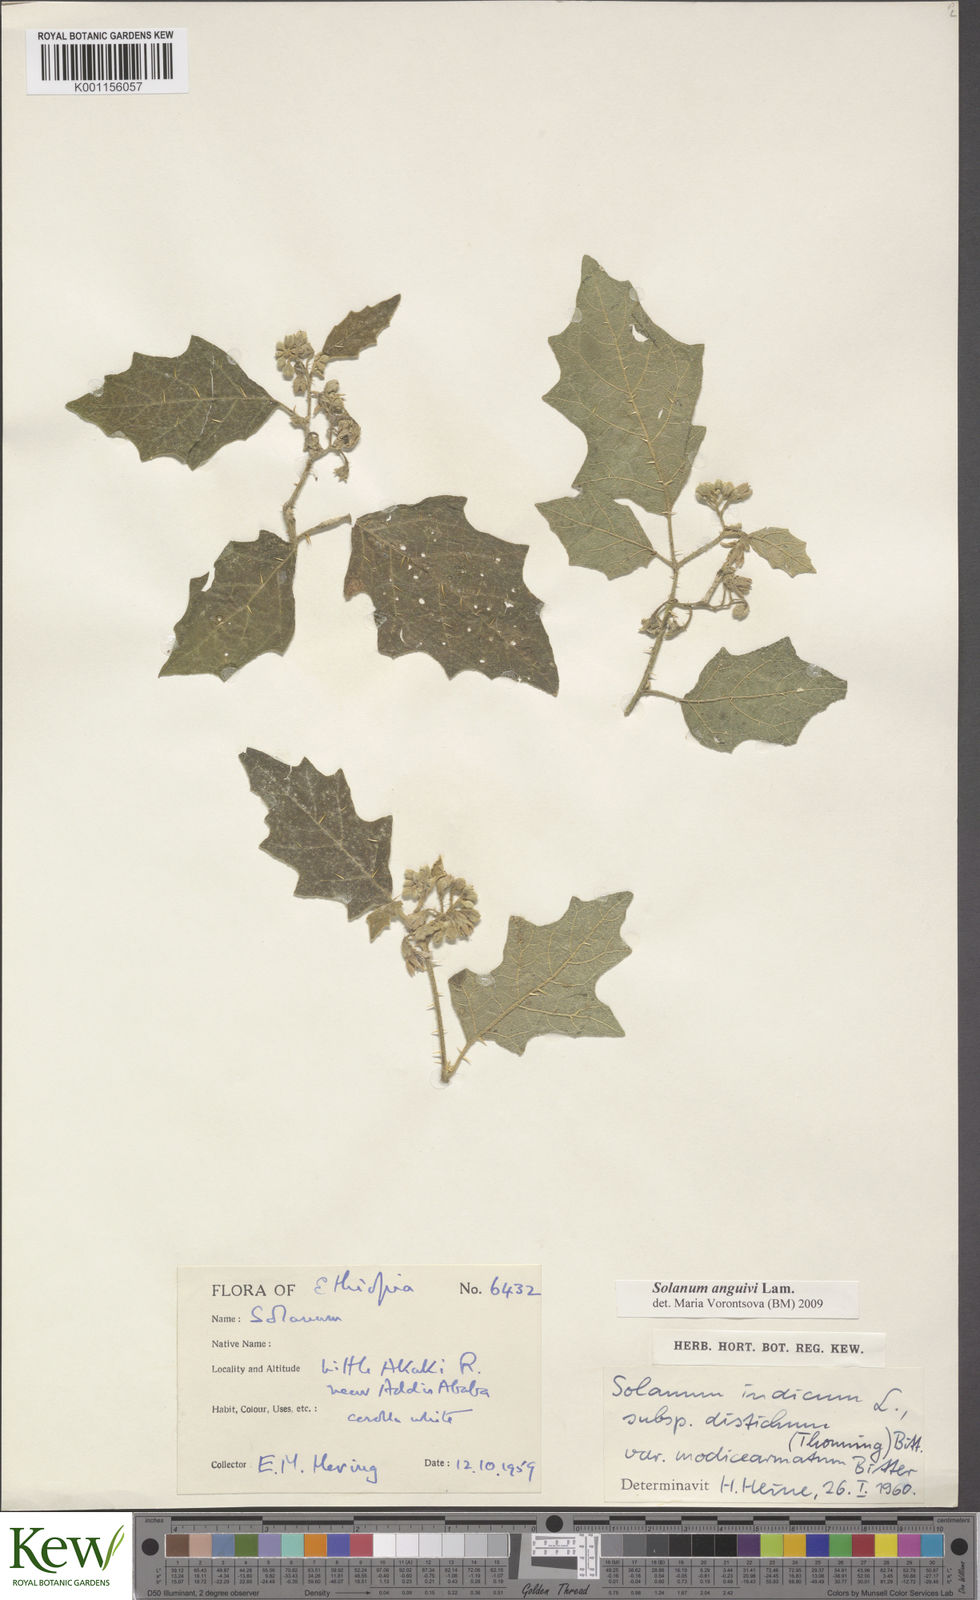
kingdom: Plantae
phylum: Tracheophyta
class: Magnoliopsida
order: Solanales
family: Solanaceae
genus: Solanum
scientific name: Solanum anguivi
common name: Forest bitterberry
